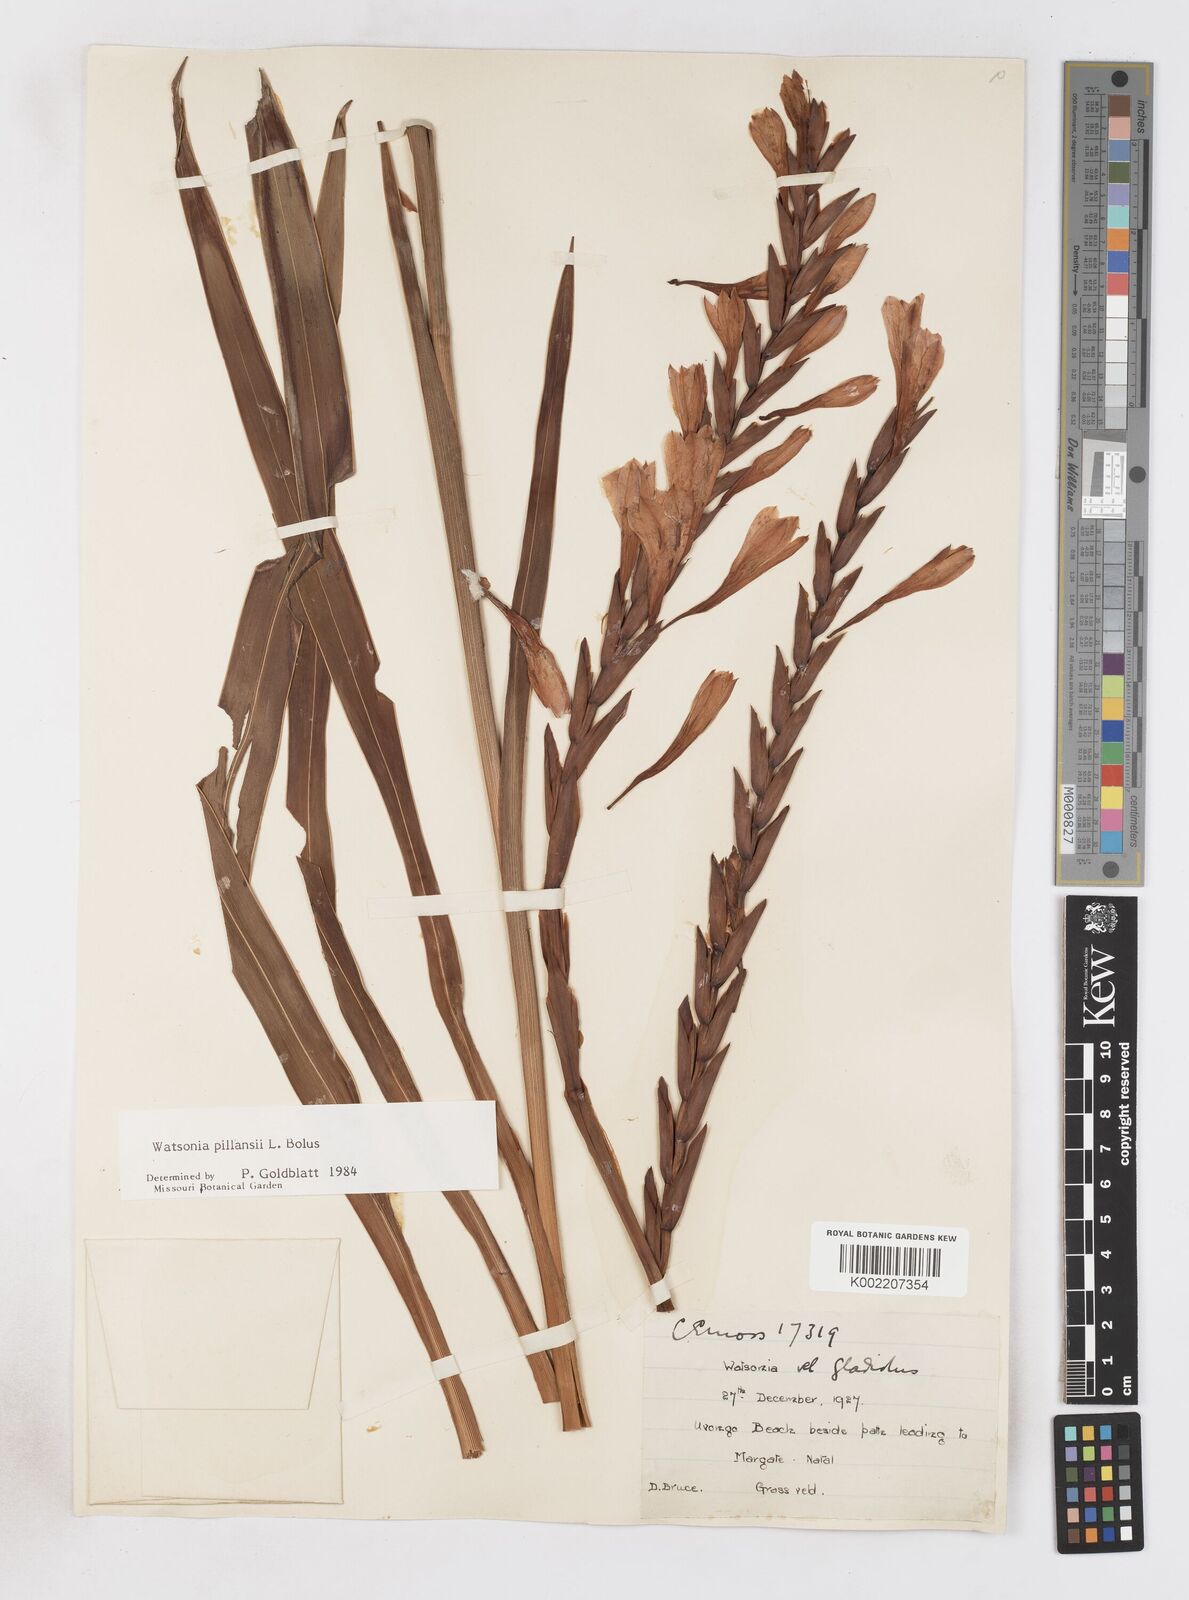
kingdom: Plantae
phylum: Tracheophyta
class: Liliopsida
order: Asparagales
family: Iridaceae
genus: Watsonia
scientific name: Watsonia pillansii
